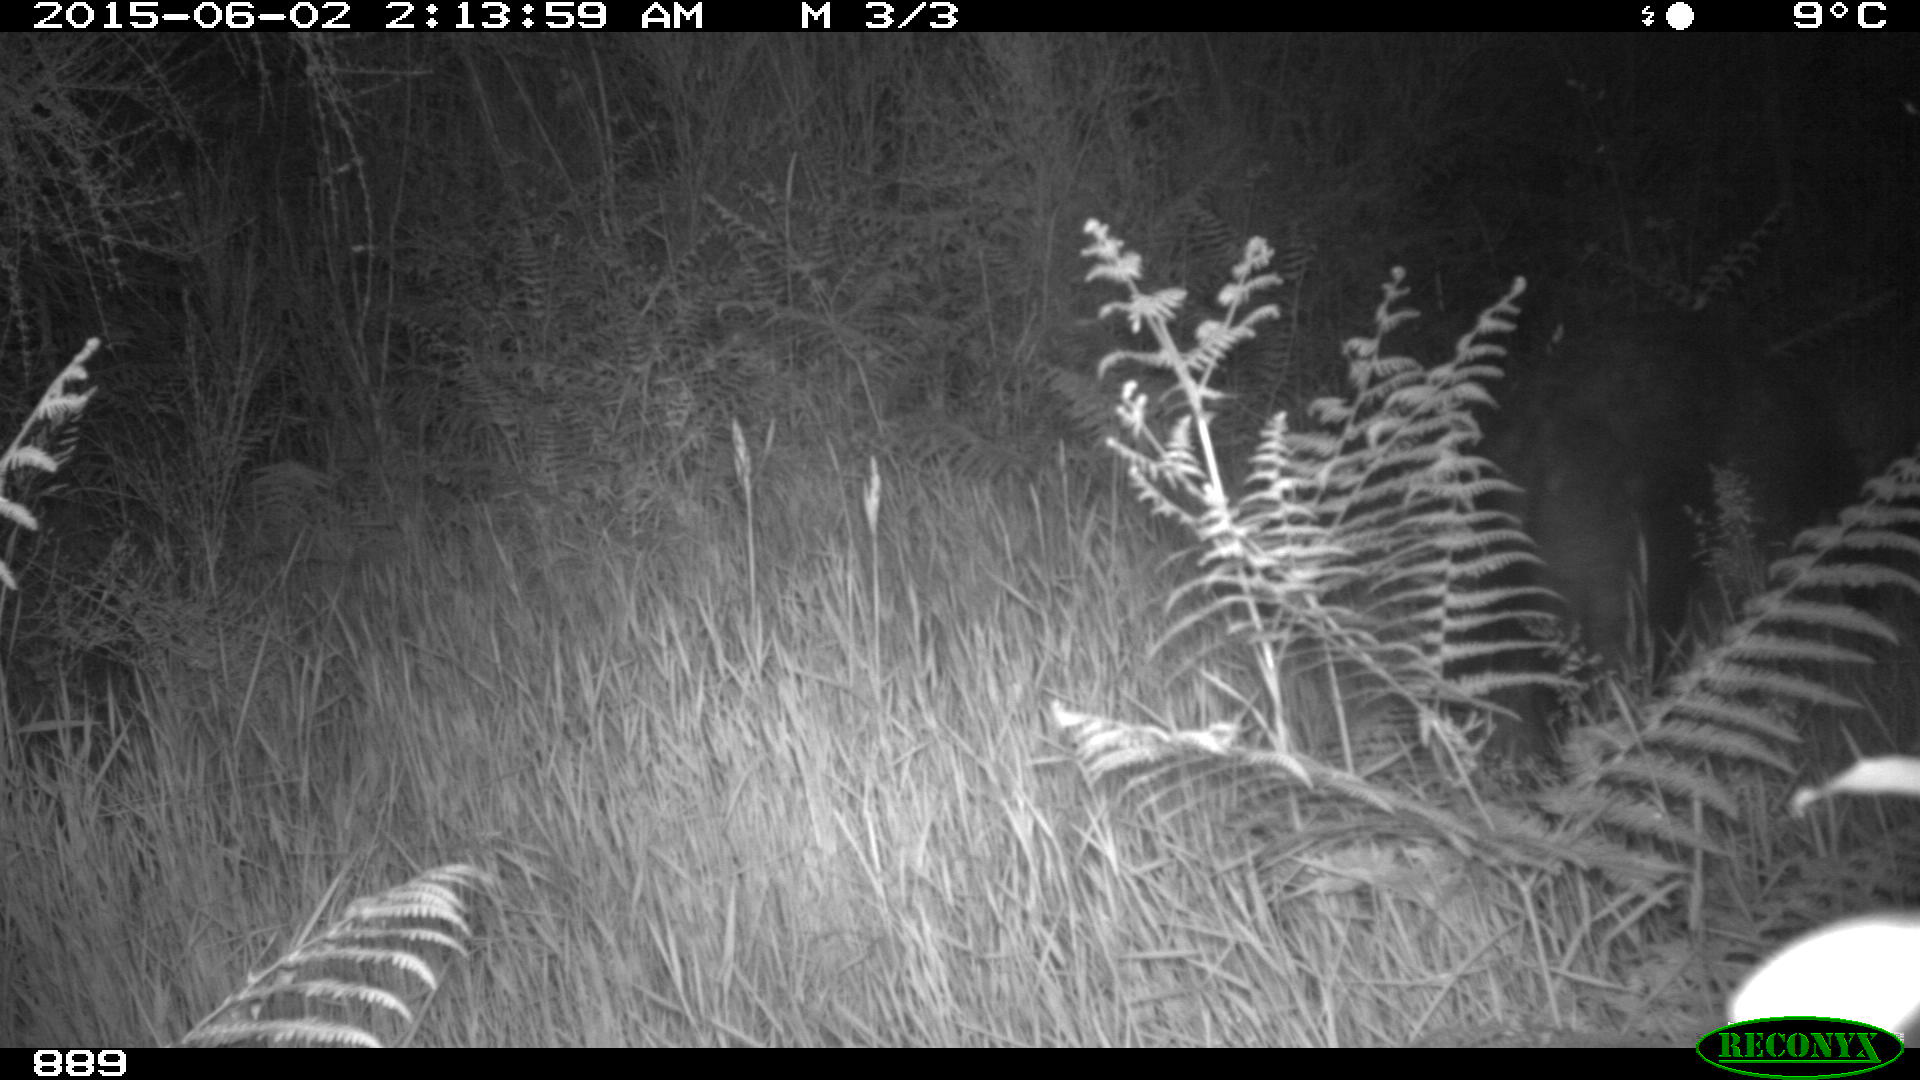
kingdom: Animalia
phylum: Chordata
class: Mammalia
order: Artiodactyla
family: Suidae
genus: Sus
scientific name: Sus scrofa
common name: Wild boar
